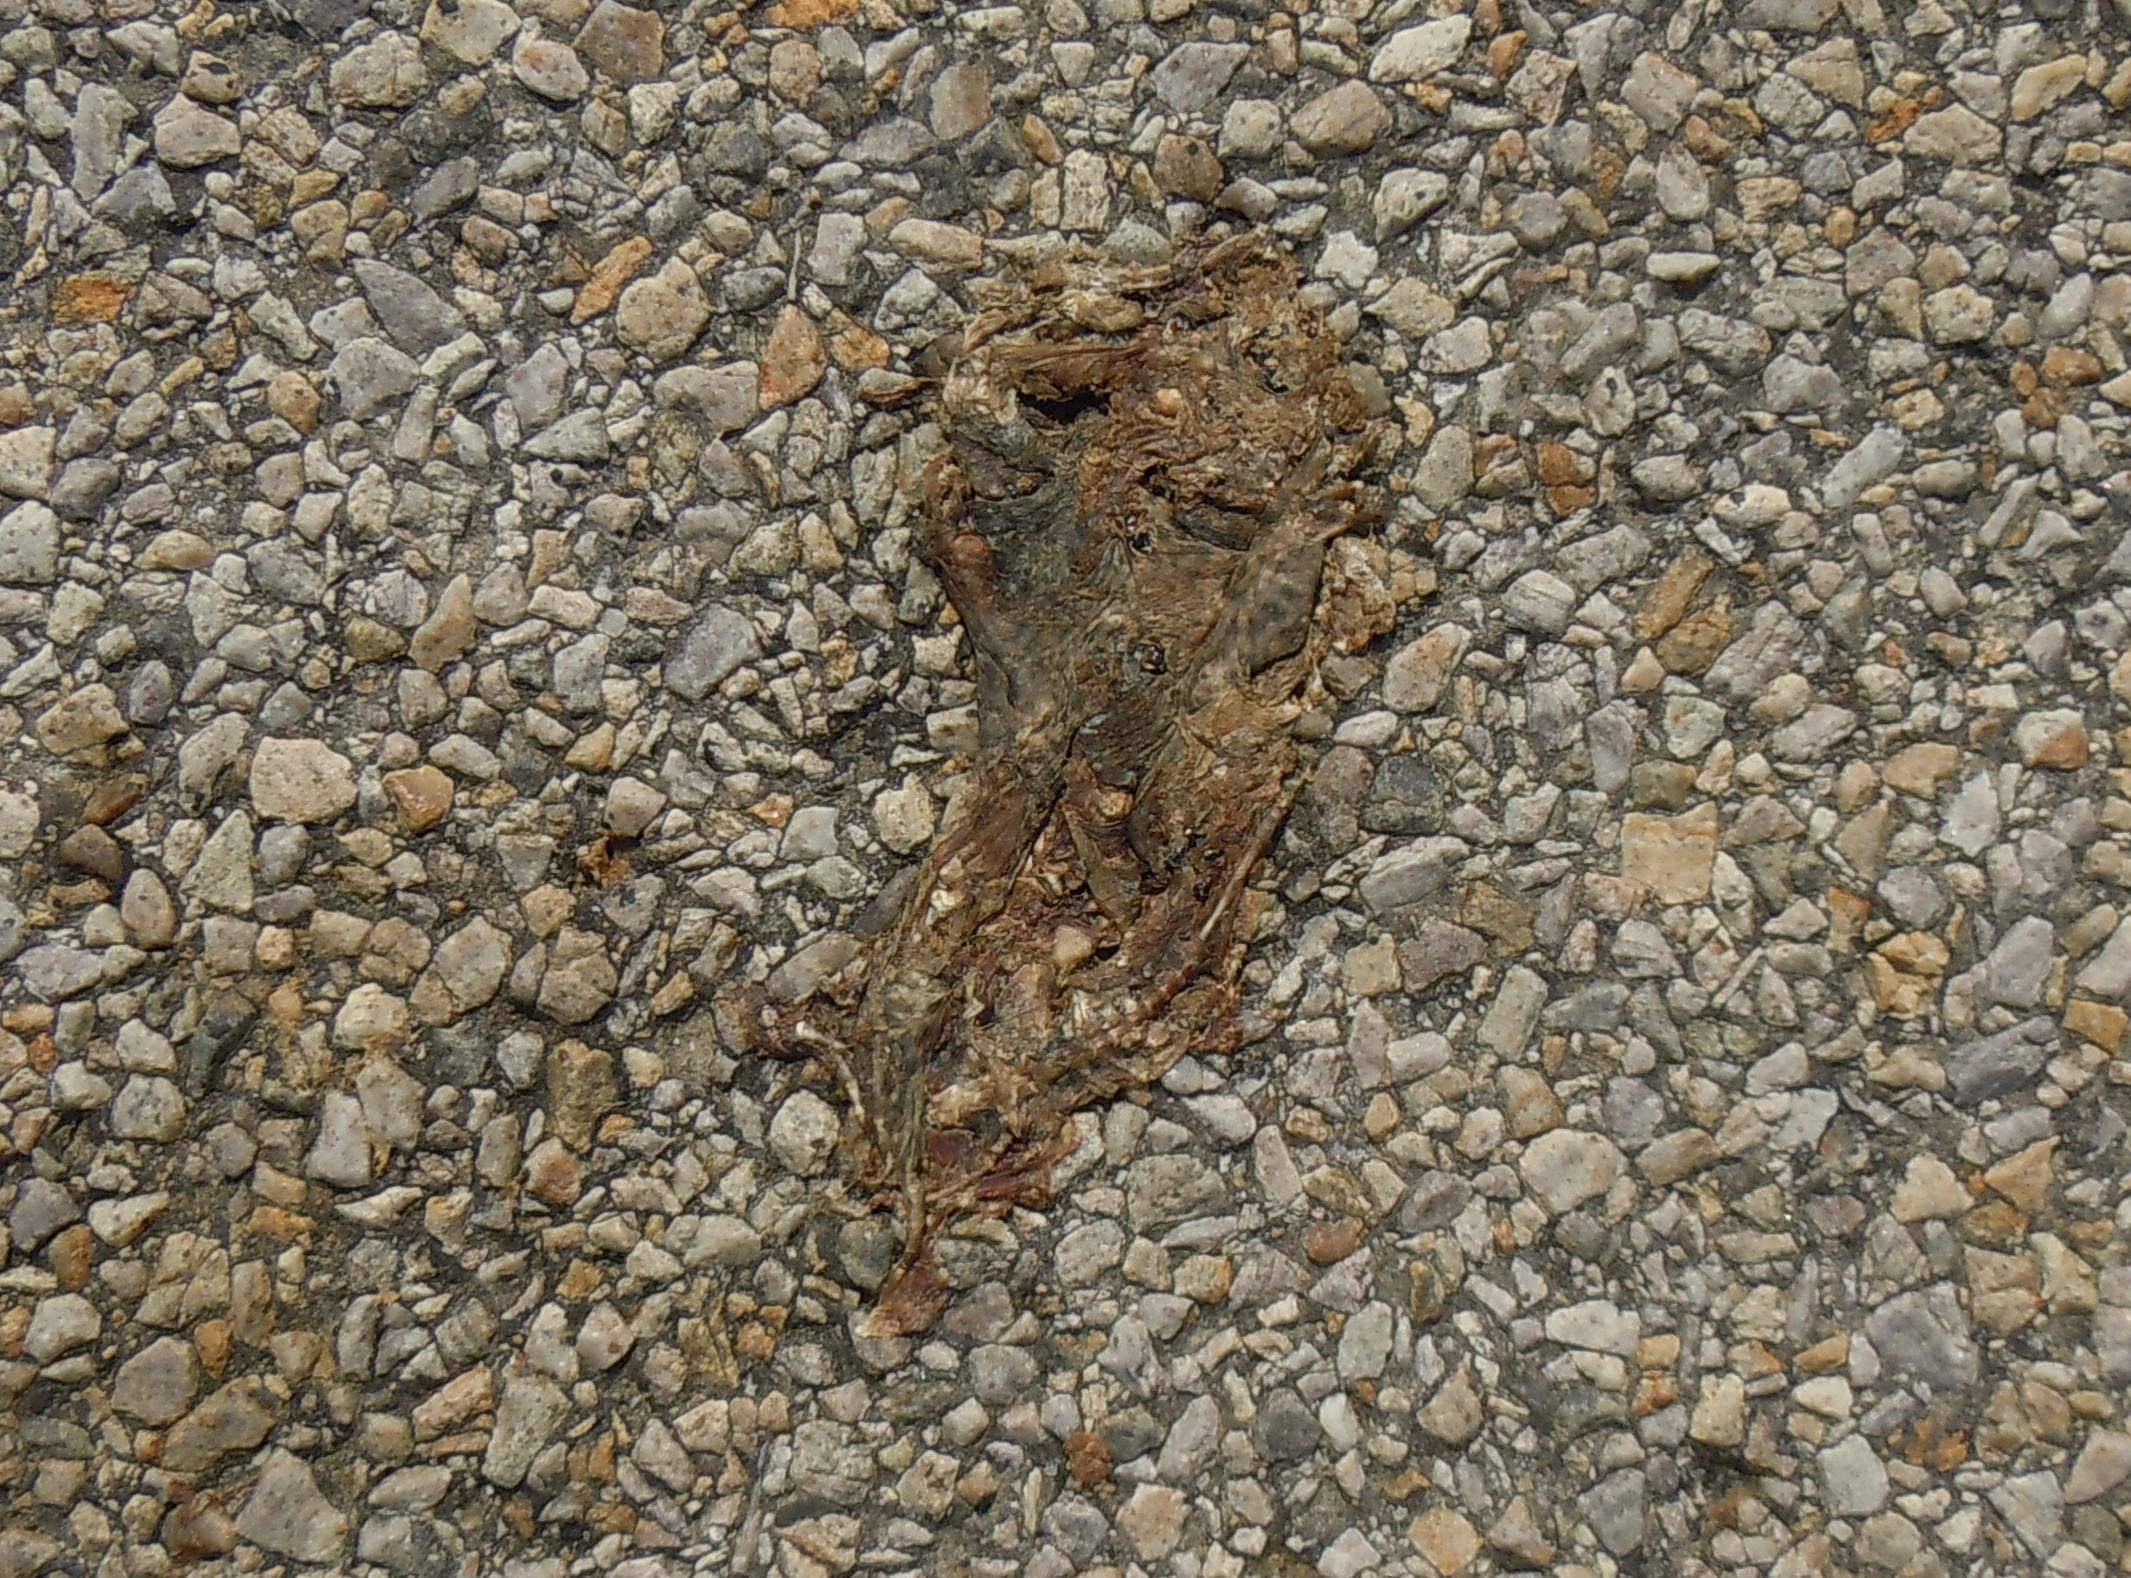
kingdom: Animalia
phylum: Chordata
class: Amphibia
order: Anura
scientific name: Anura
